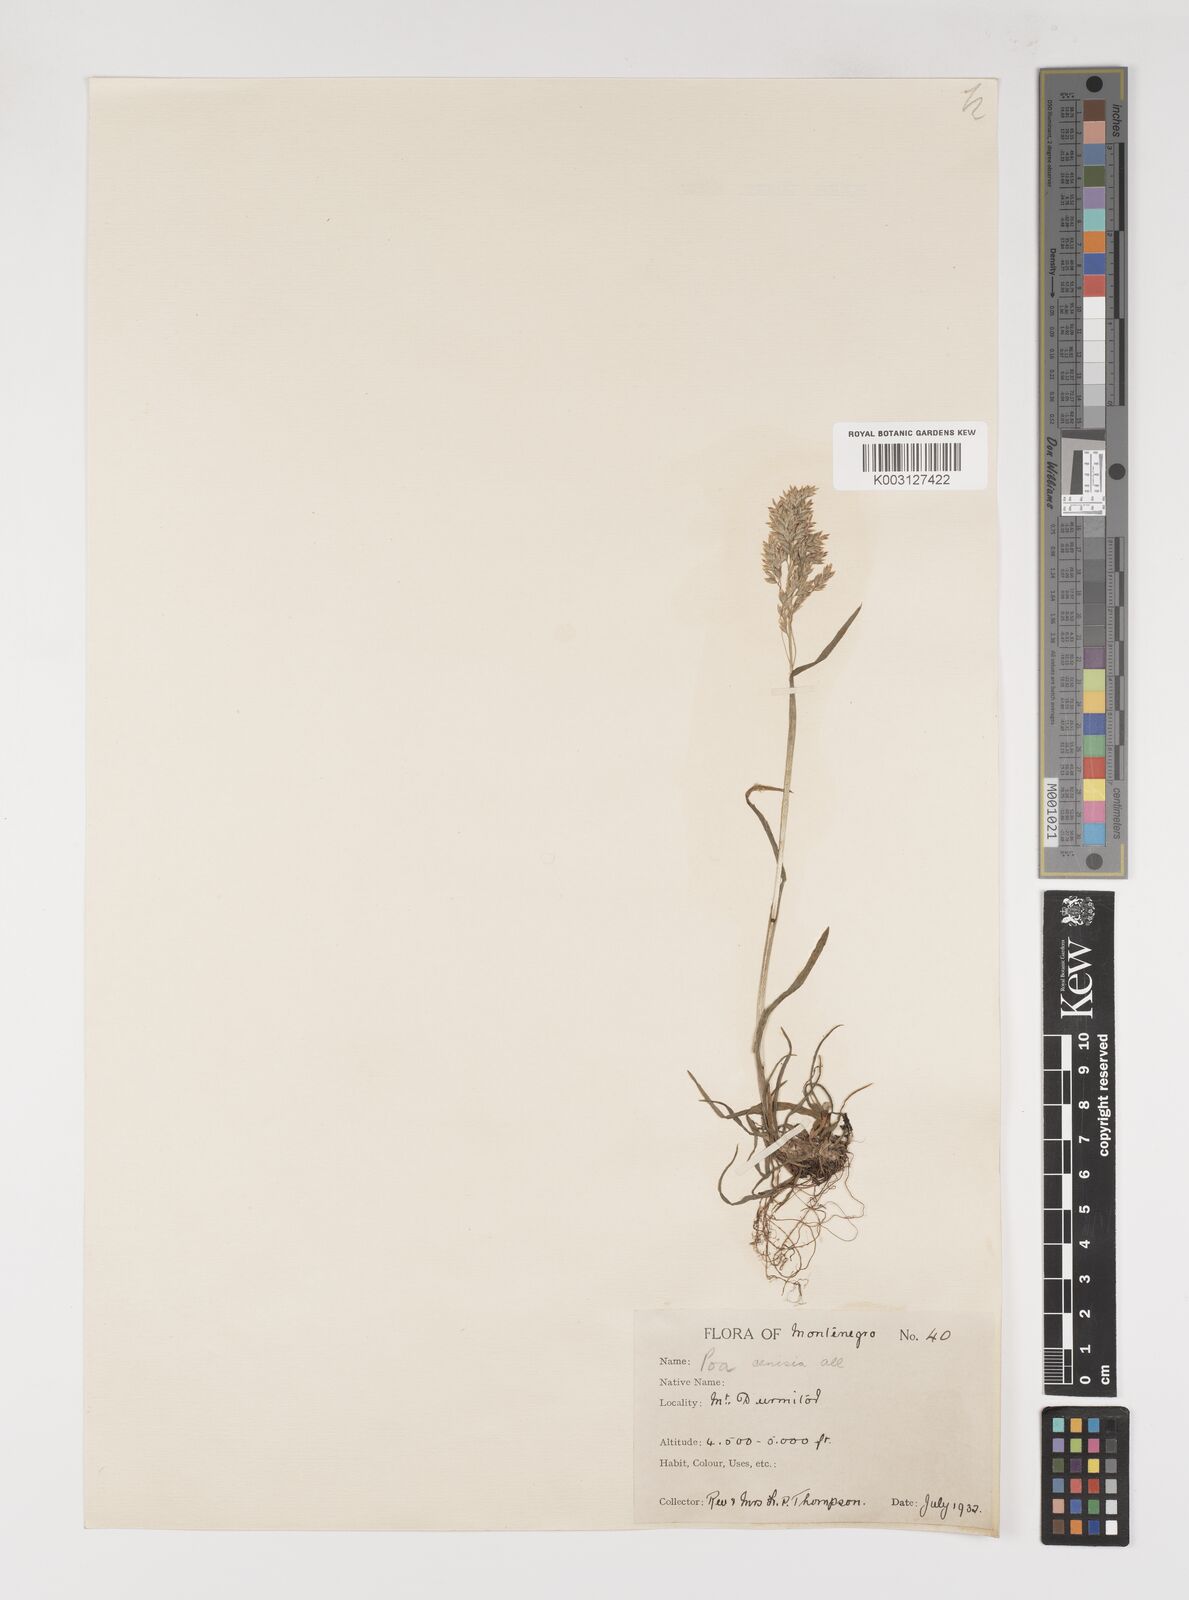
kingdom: Plantae
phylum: Tracheophyta
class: Liliopsida
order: Poales
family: Poaceae
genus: Poa
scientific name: Poa alpina
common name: Alpine bluegrass
